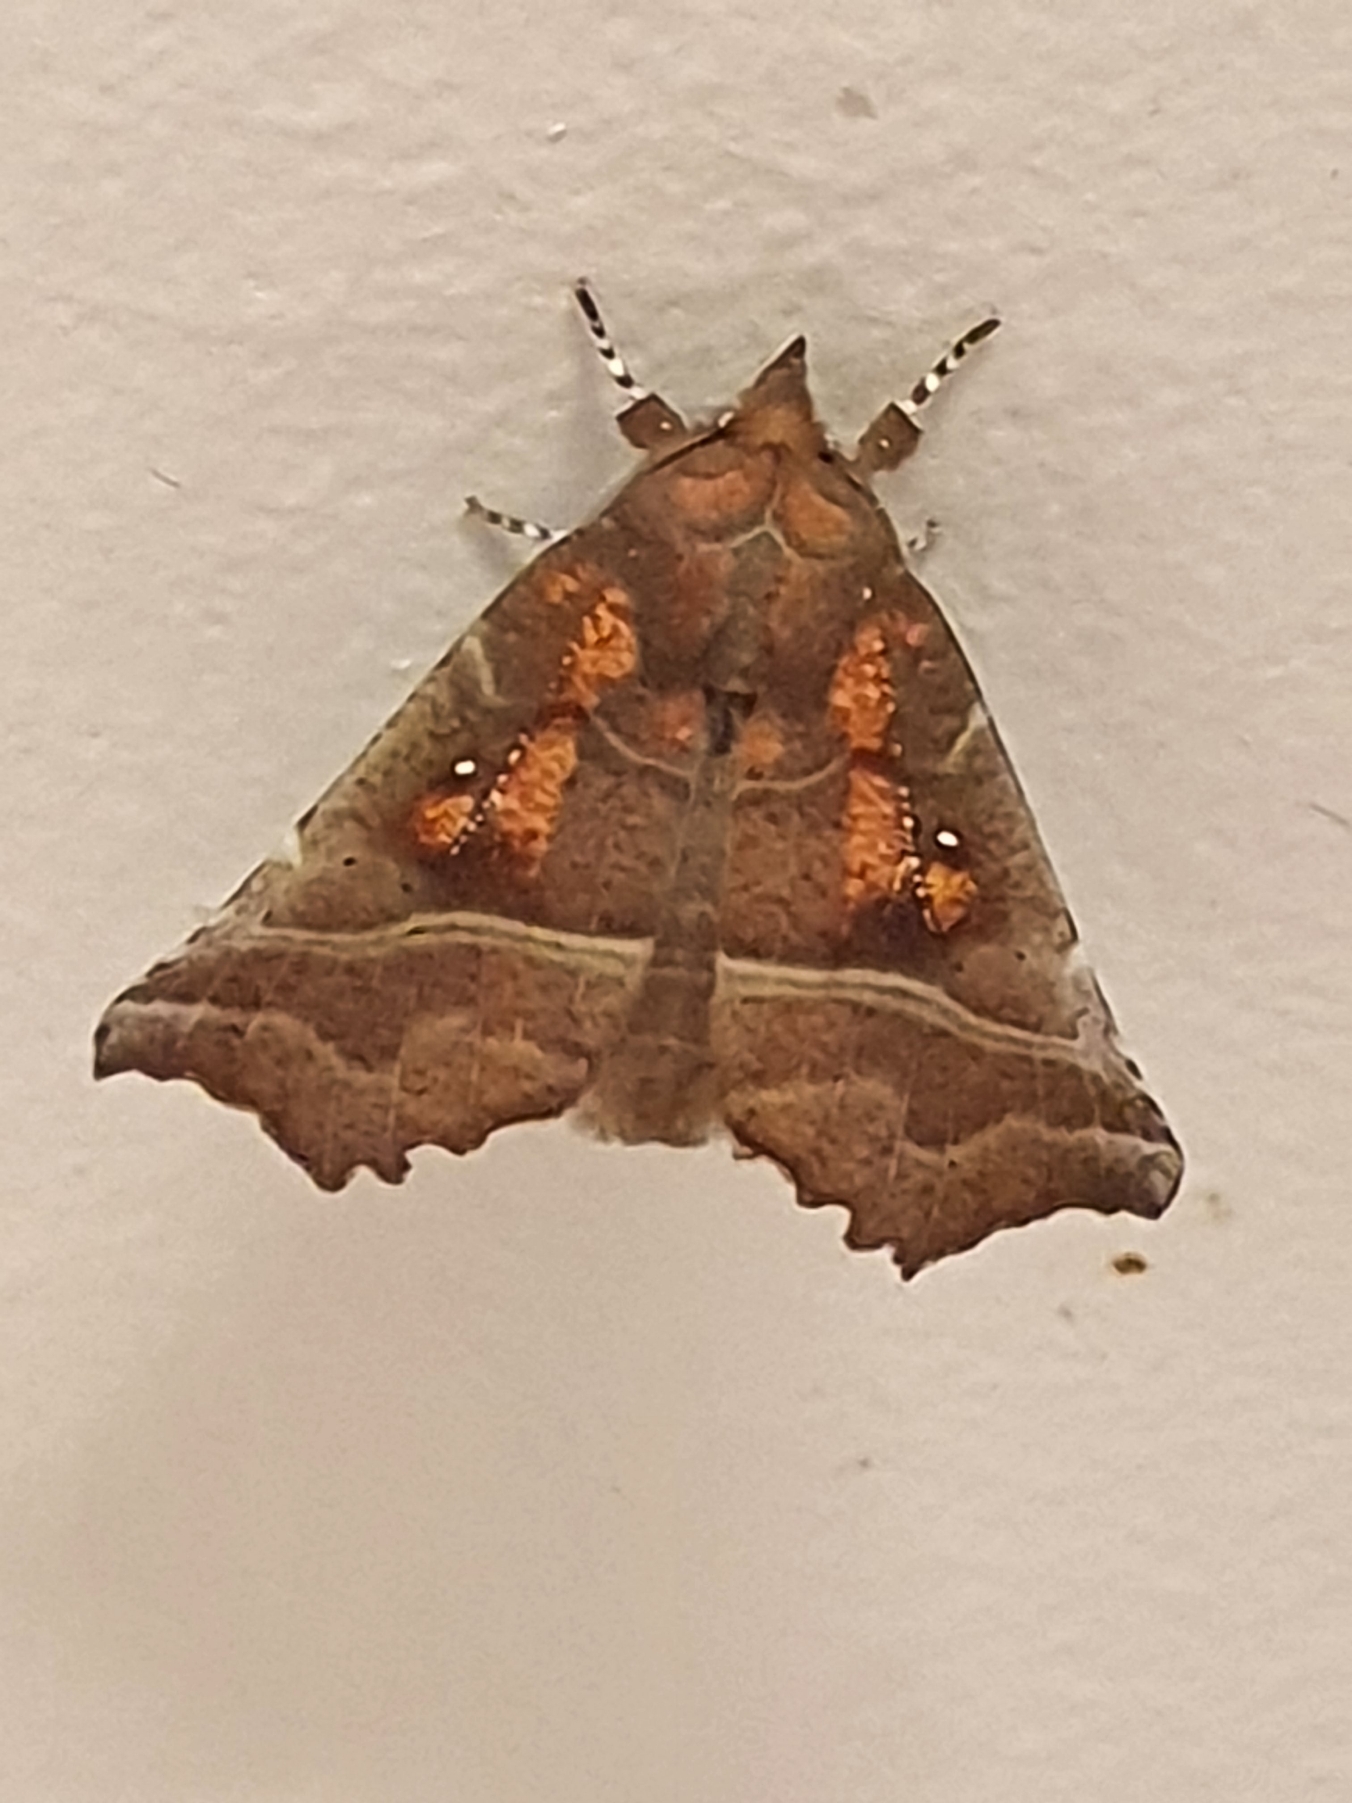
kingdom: Animalia
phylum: Arthropoda
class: Insecta
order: Lepidoptera
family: Erebidae
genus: Scoliopteryx
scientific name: Scoliopteryx libatrix
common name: Husmoderugle
